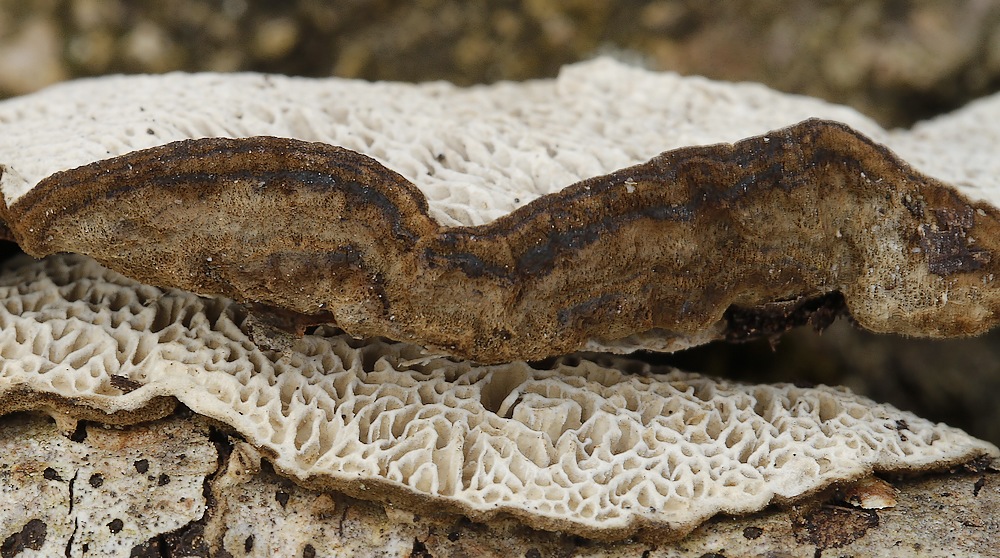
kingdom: Fungi
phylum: Basidiomycota
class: Agaricomycetes
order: Polyporales
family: Polyporaceae
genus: Podofomes
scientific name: Podofomes mollis
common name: blød begporesvamp
